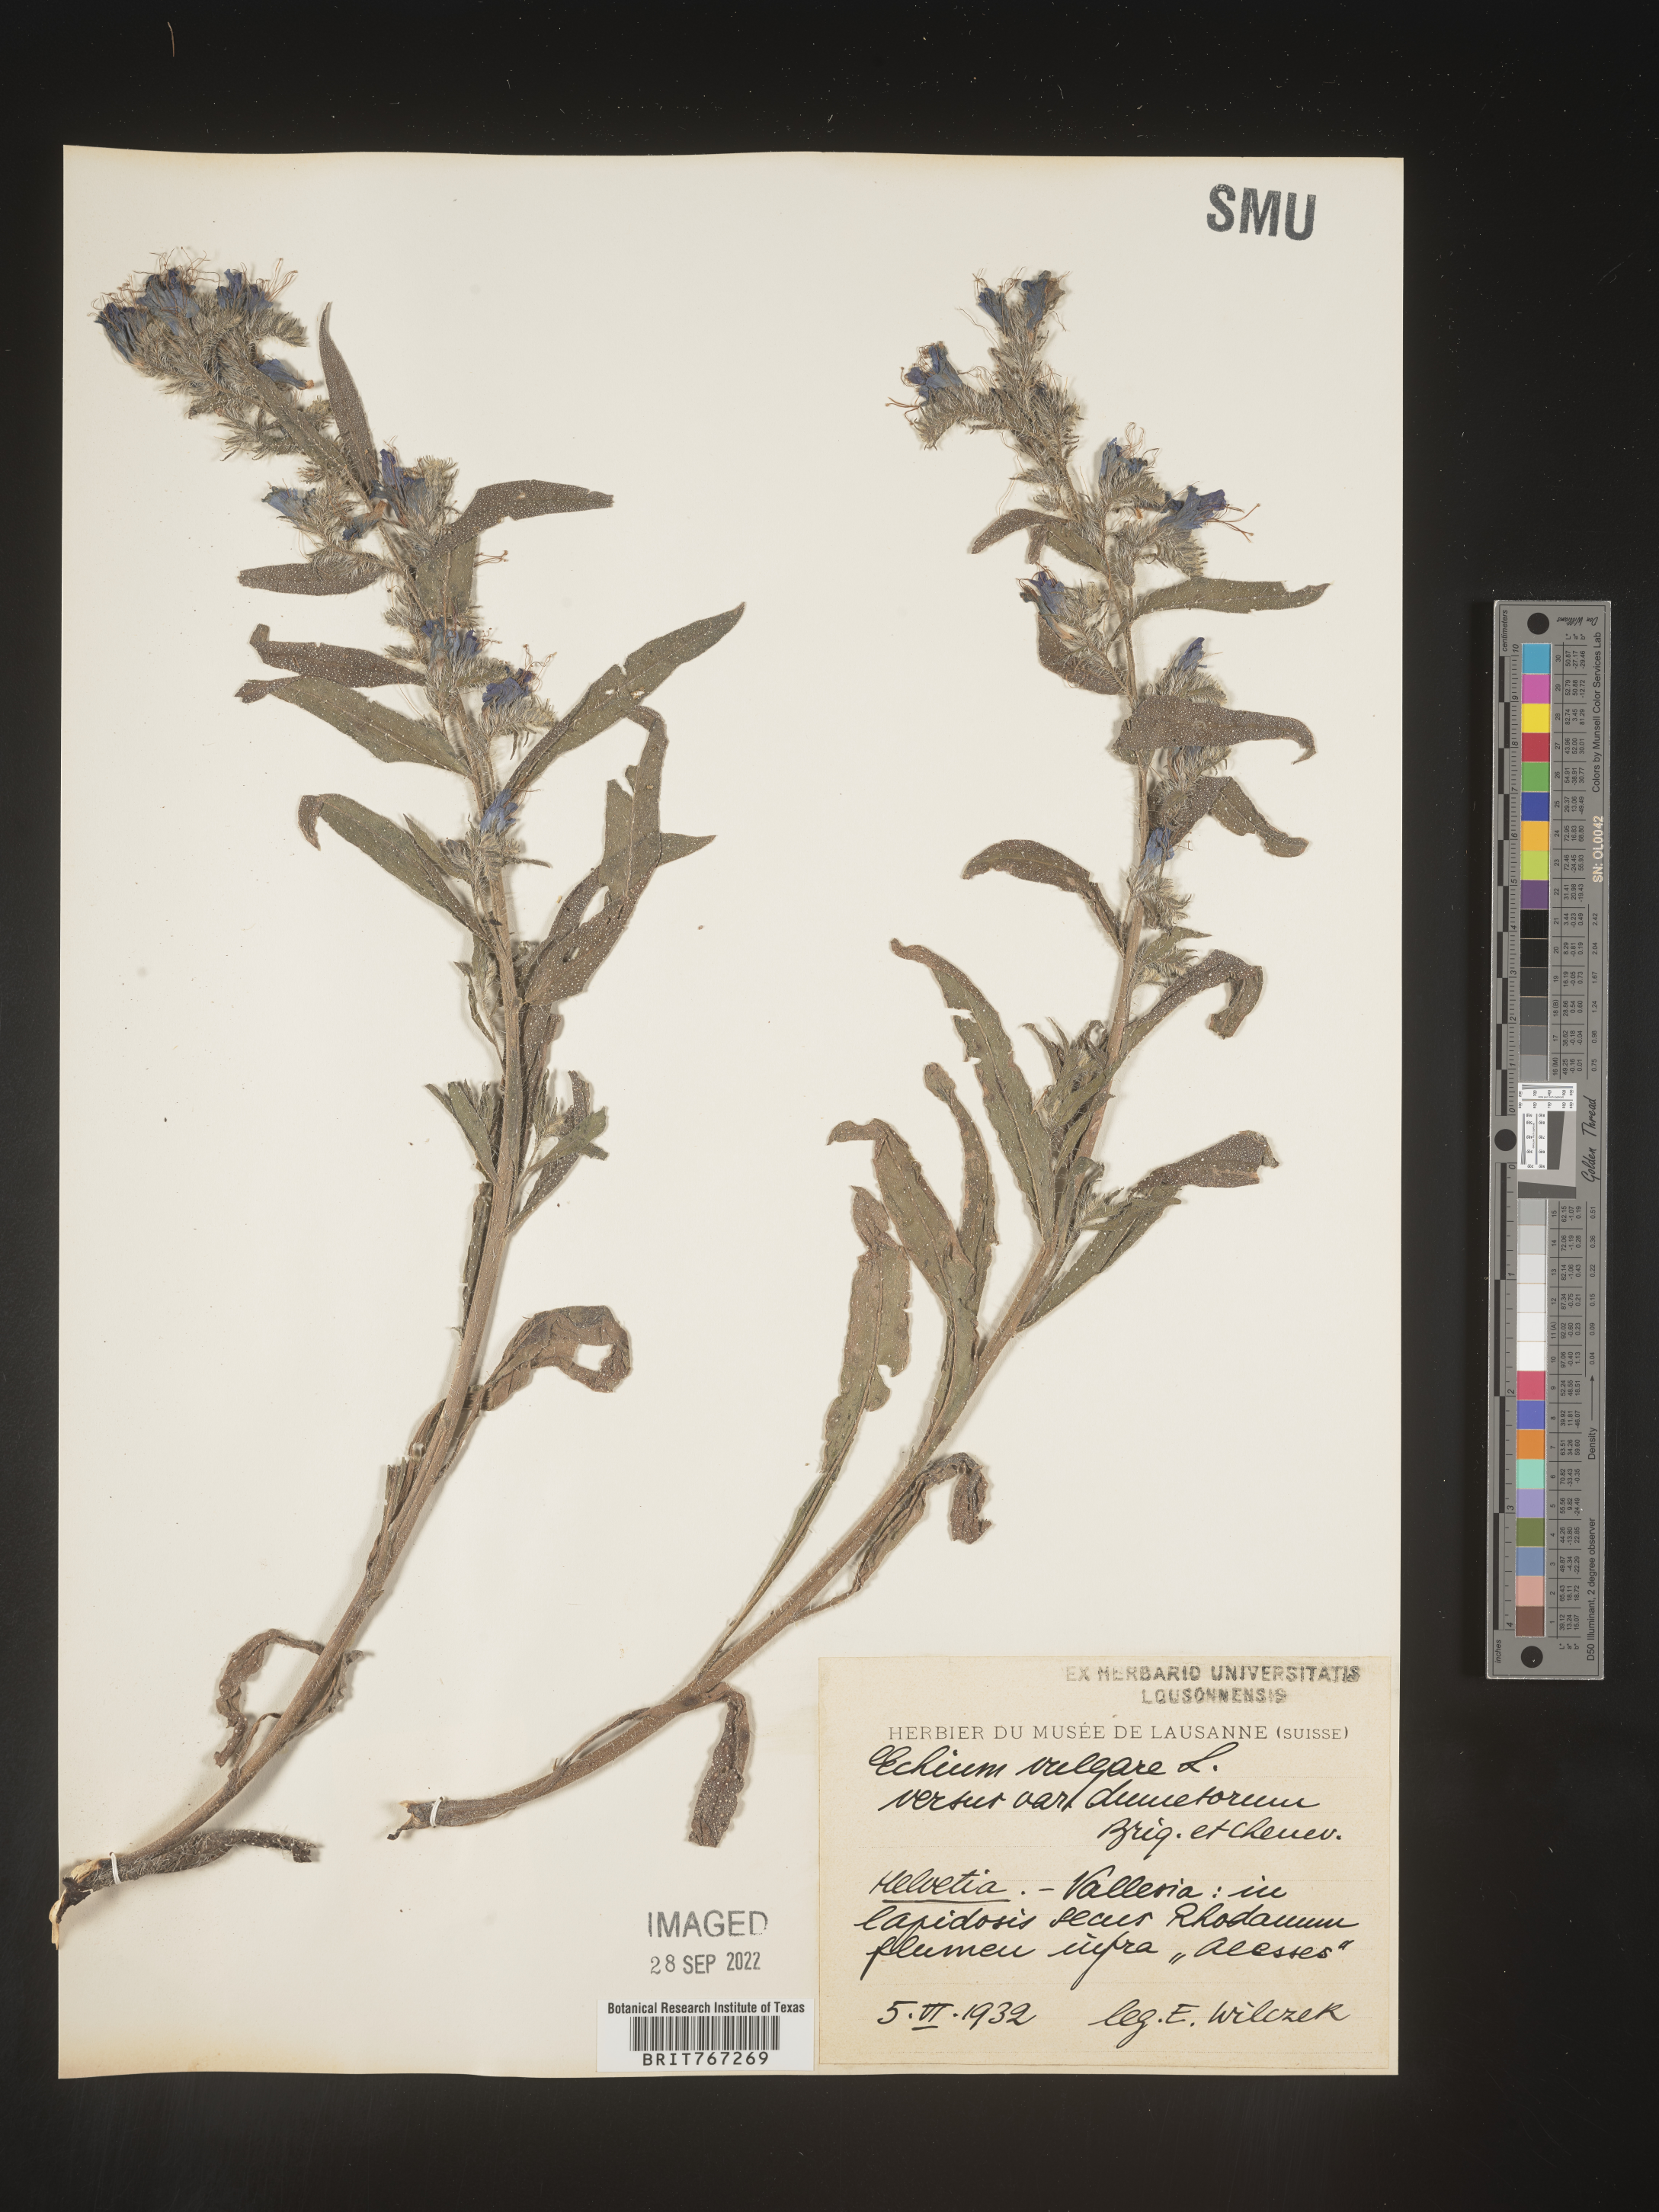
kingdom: Plantae
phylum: Tracheophyta
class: Magnoliopsida
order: Boraginales
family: Boraginaceae
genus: Echium
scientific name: Echium
